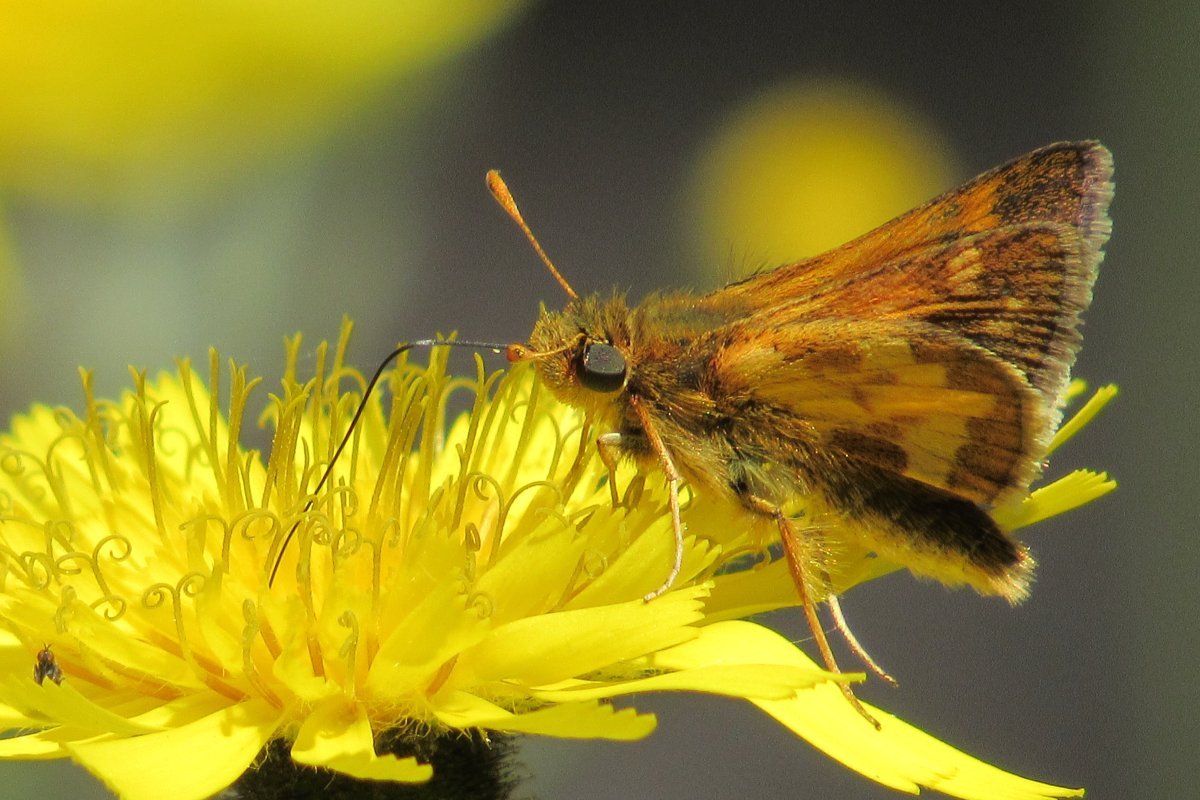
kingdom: Animalia
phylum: Arthropoda
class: Insecta
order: Lepidoptera
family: Hesperiidae
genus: Polites
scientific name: Polites coras
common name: Peck's Skipper
